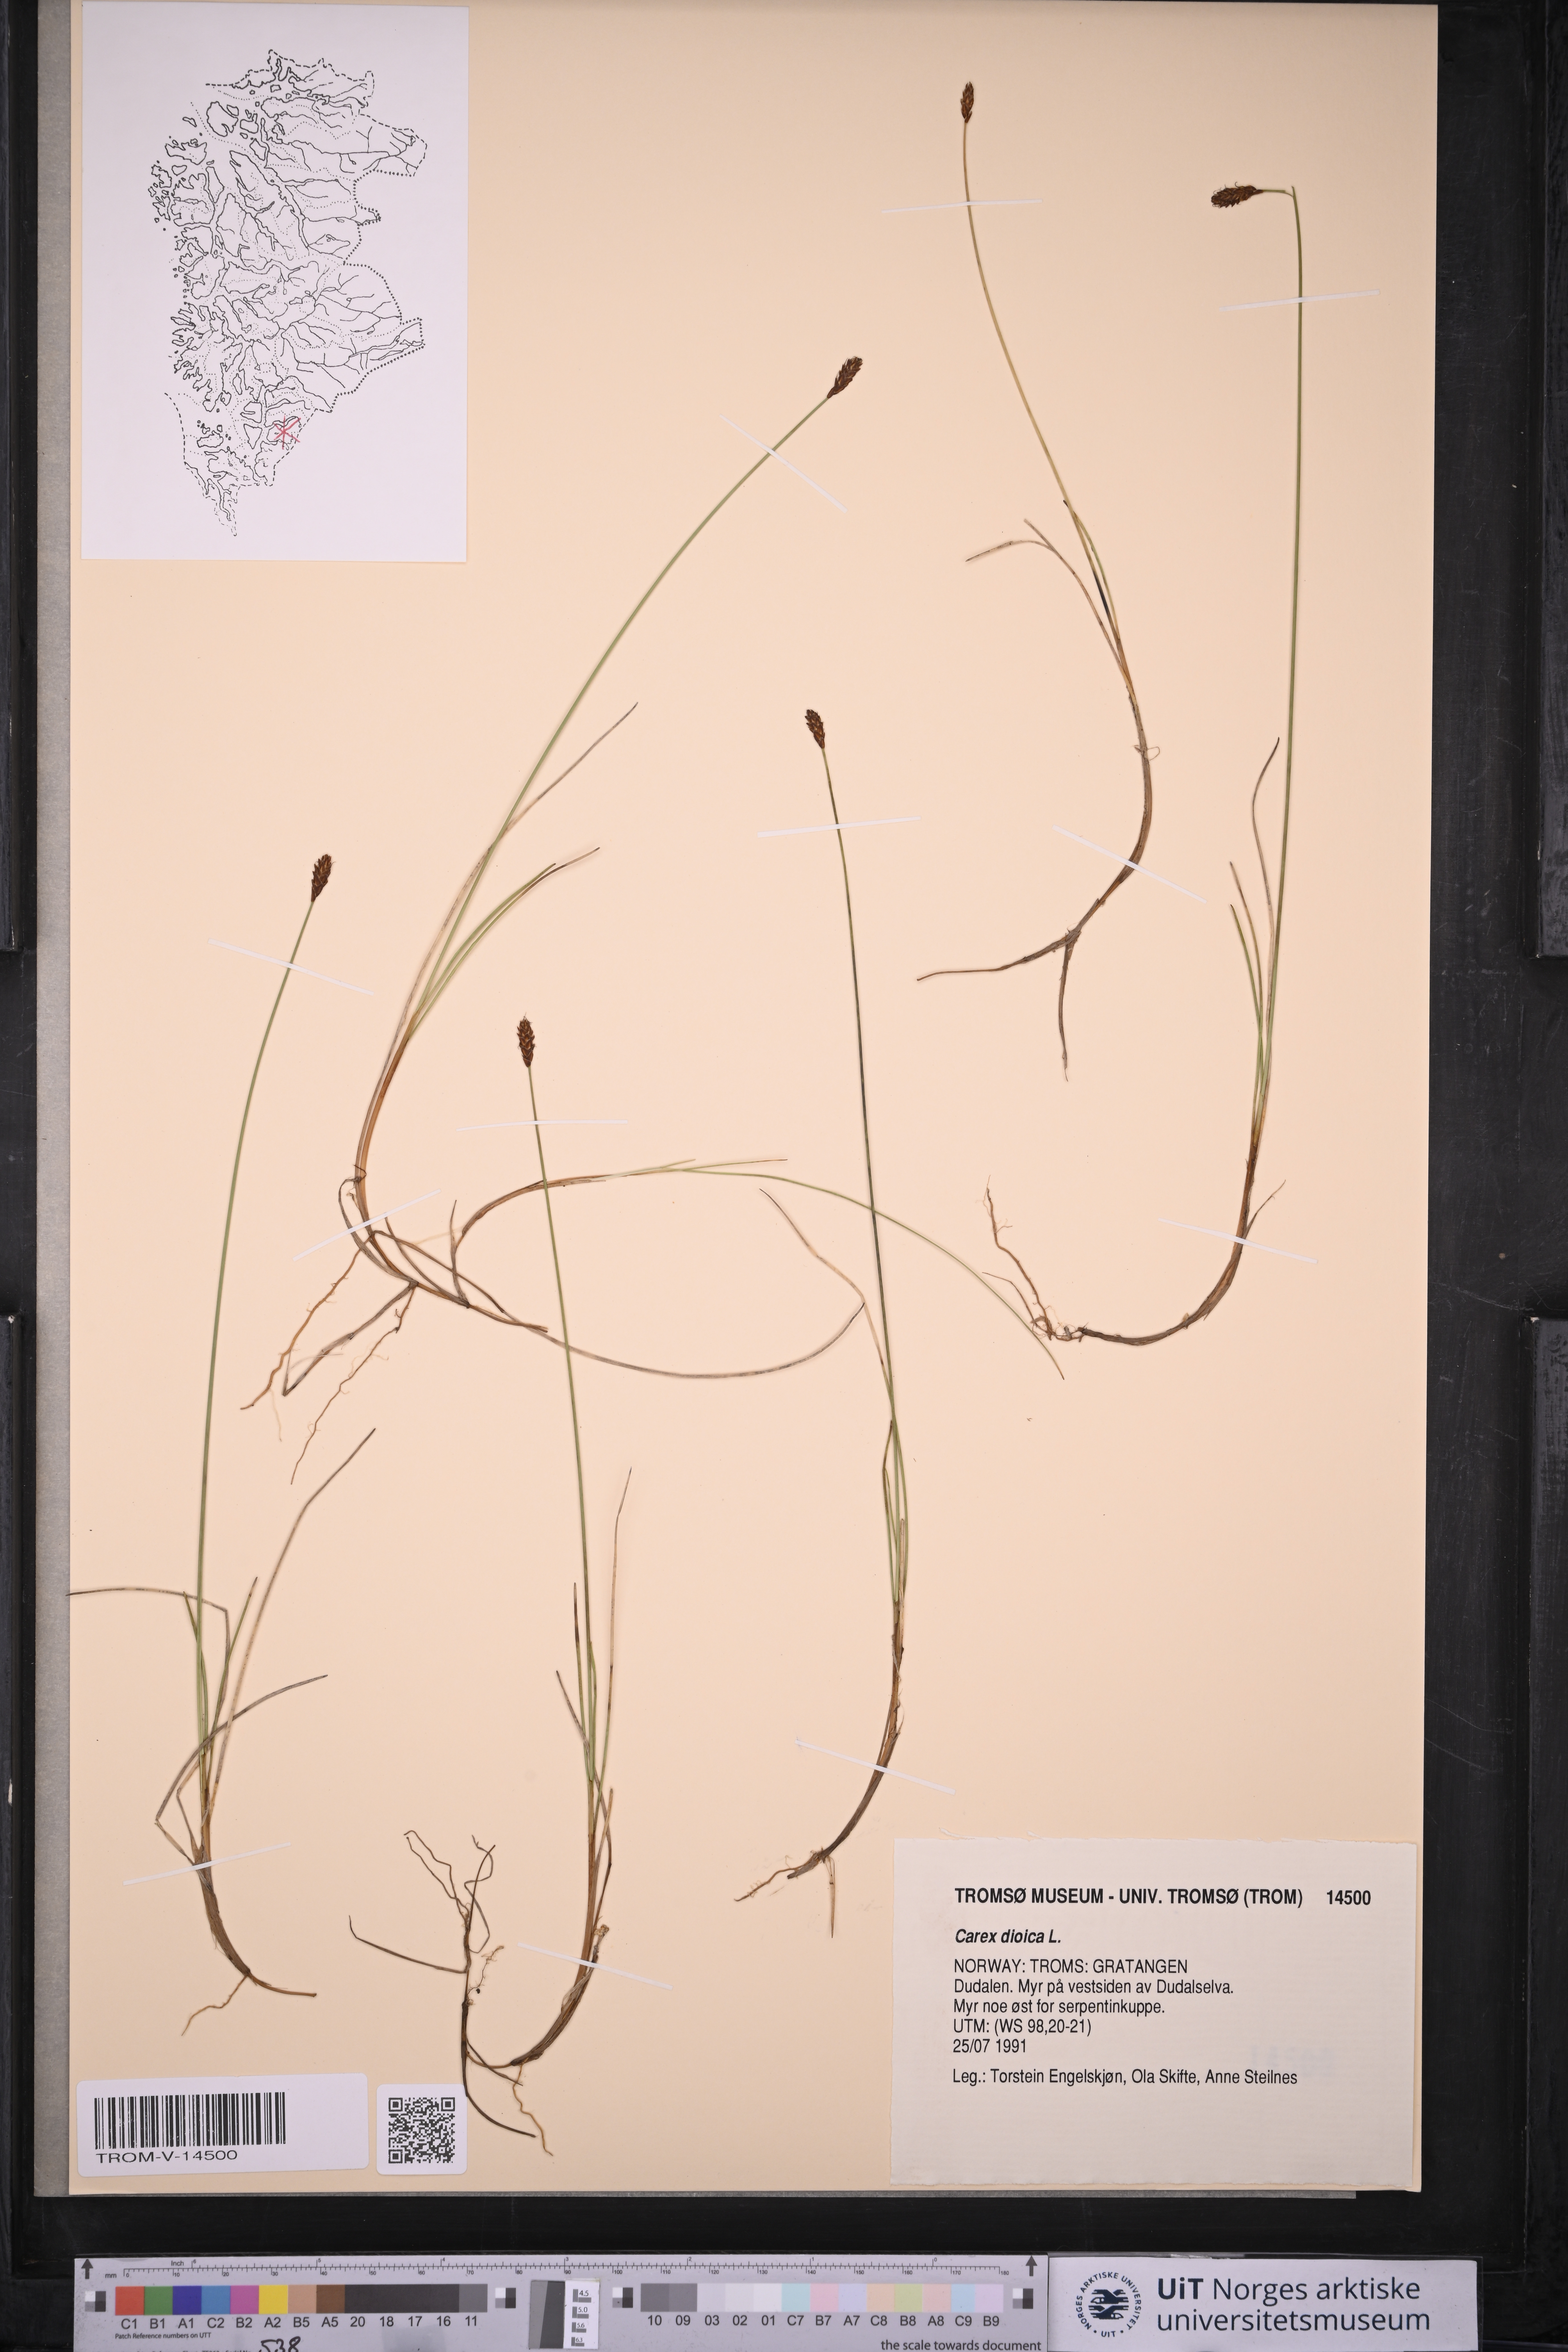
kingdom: Plantae
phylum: Tracheophyta
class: Liliopsida
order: Poales
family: Cyperaceae
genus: Carex
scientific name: Carex dioica
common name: Dioecious sedge
